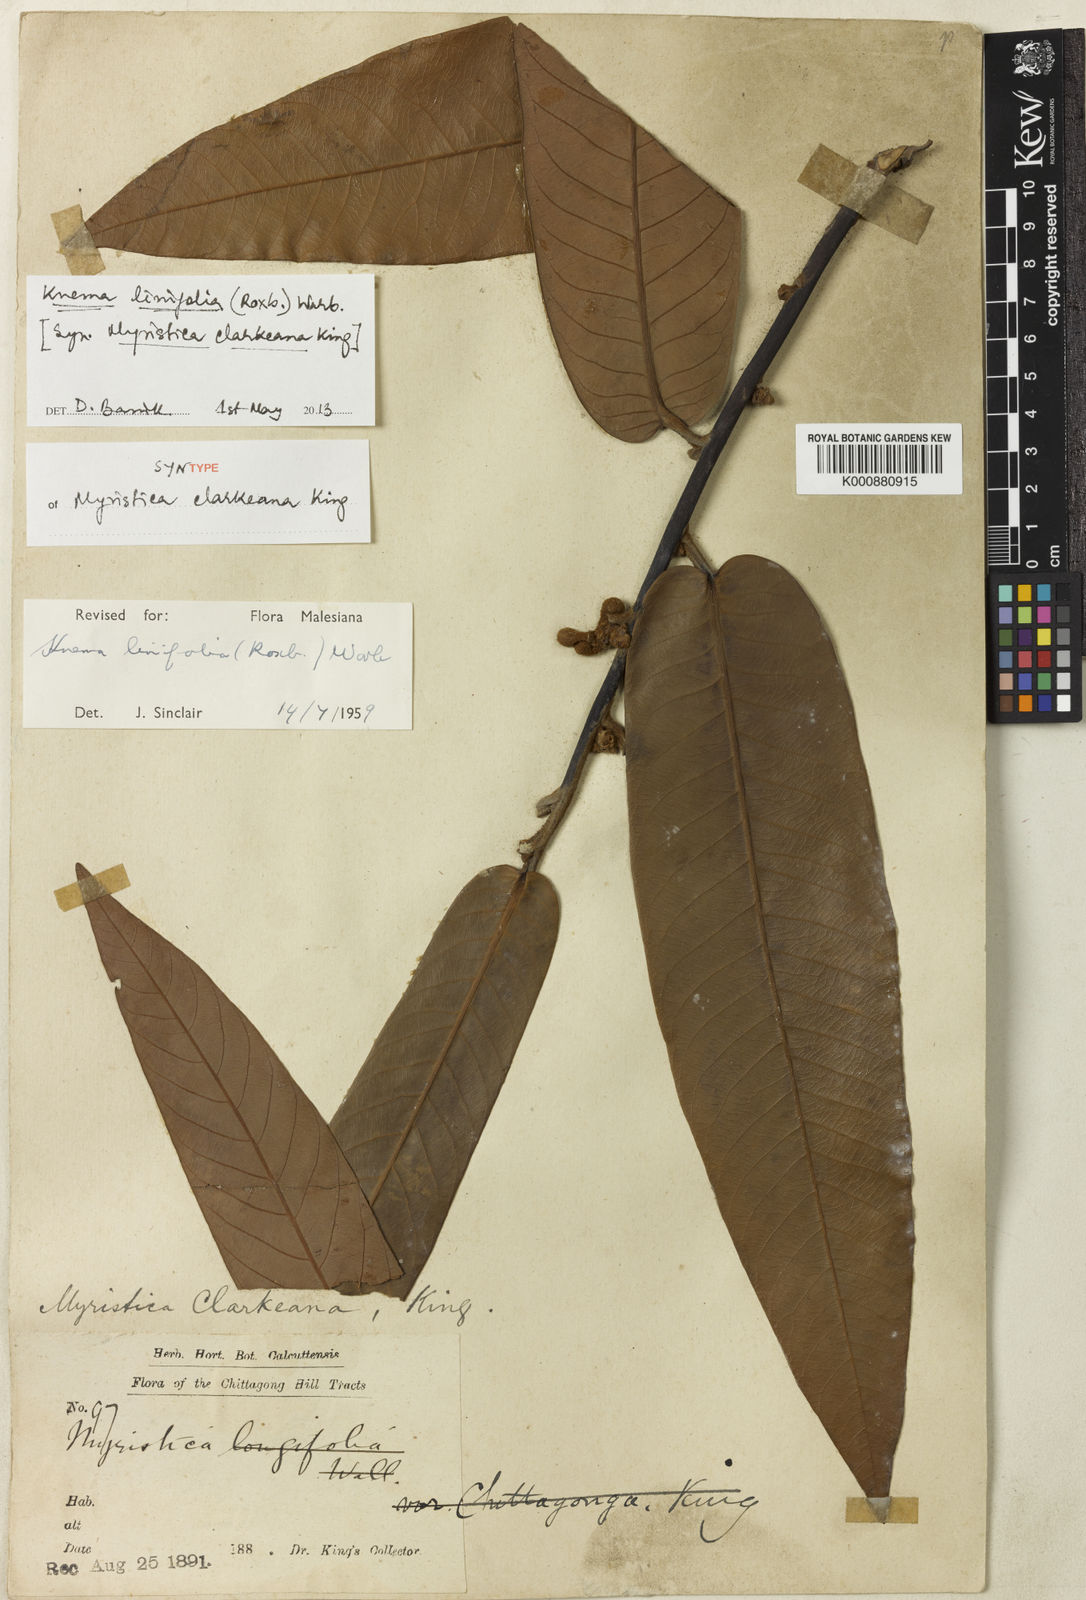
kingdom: Plantae
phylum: Tracheophyta
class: Magnoliopsida
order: Magnoliales
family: Myristicaceae
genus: Knema
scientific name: Knema linifolia
